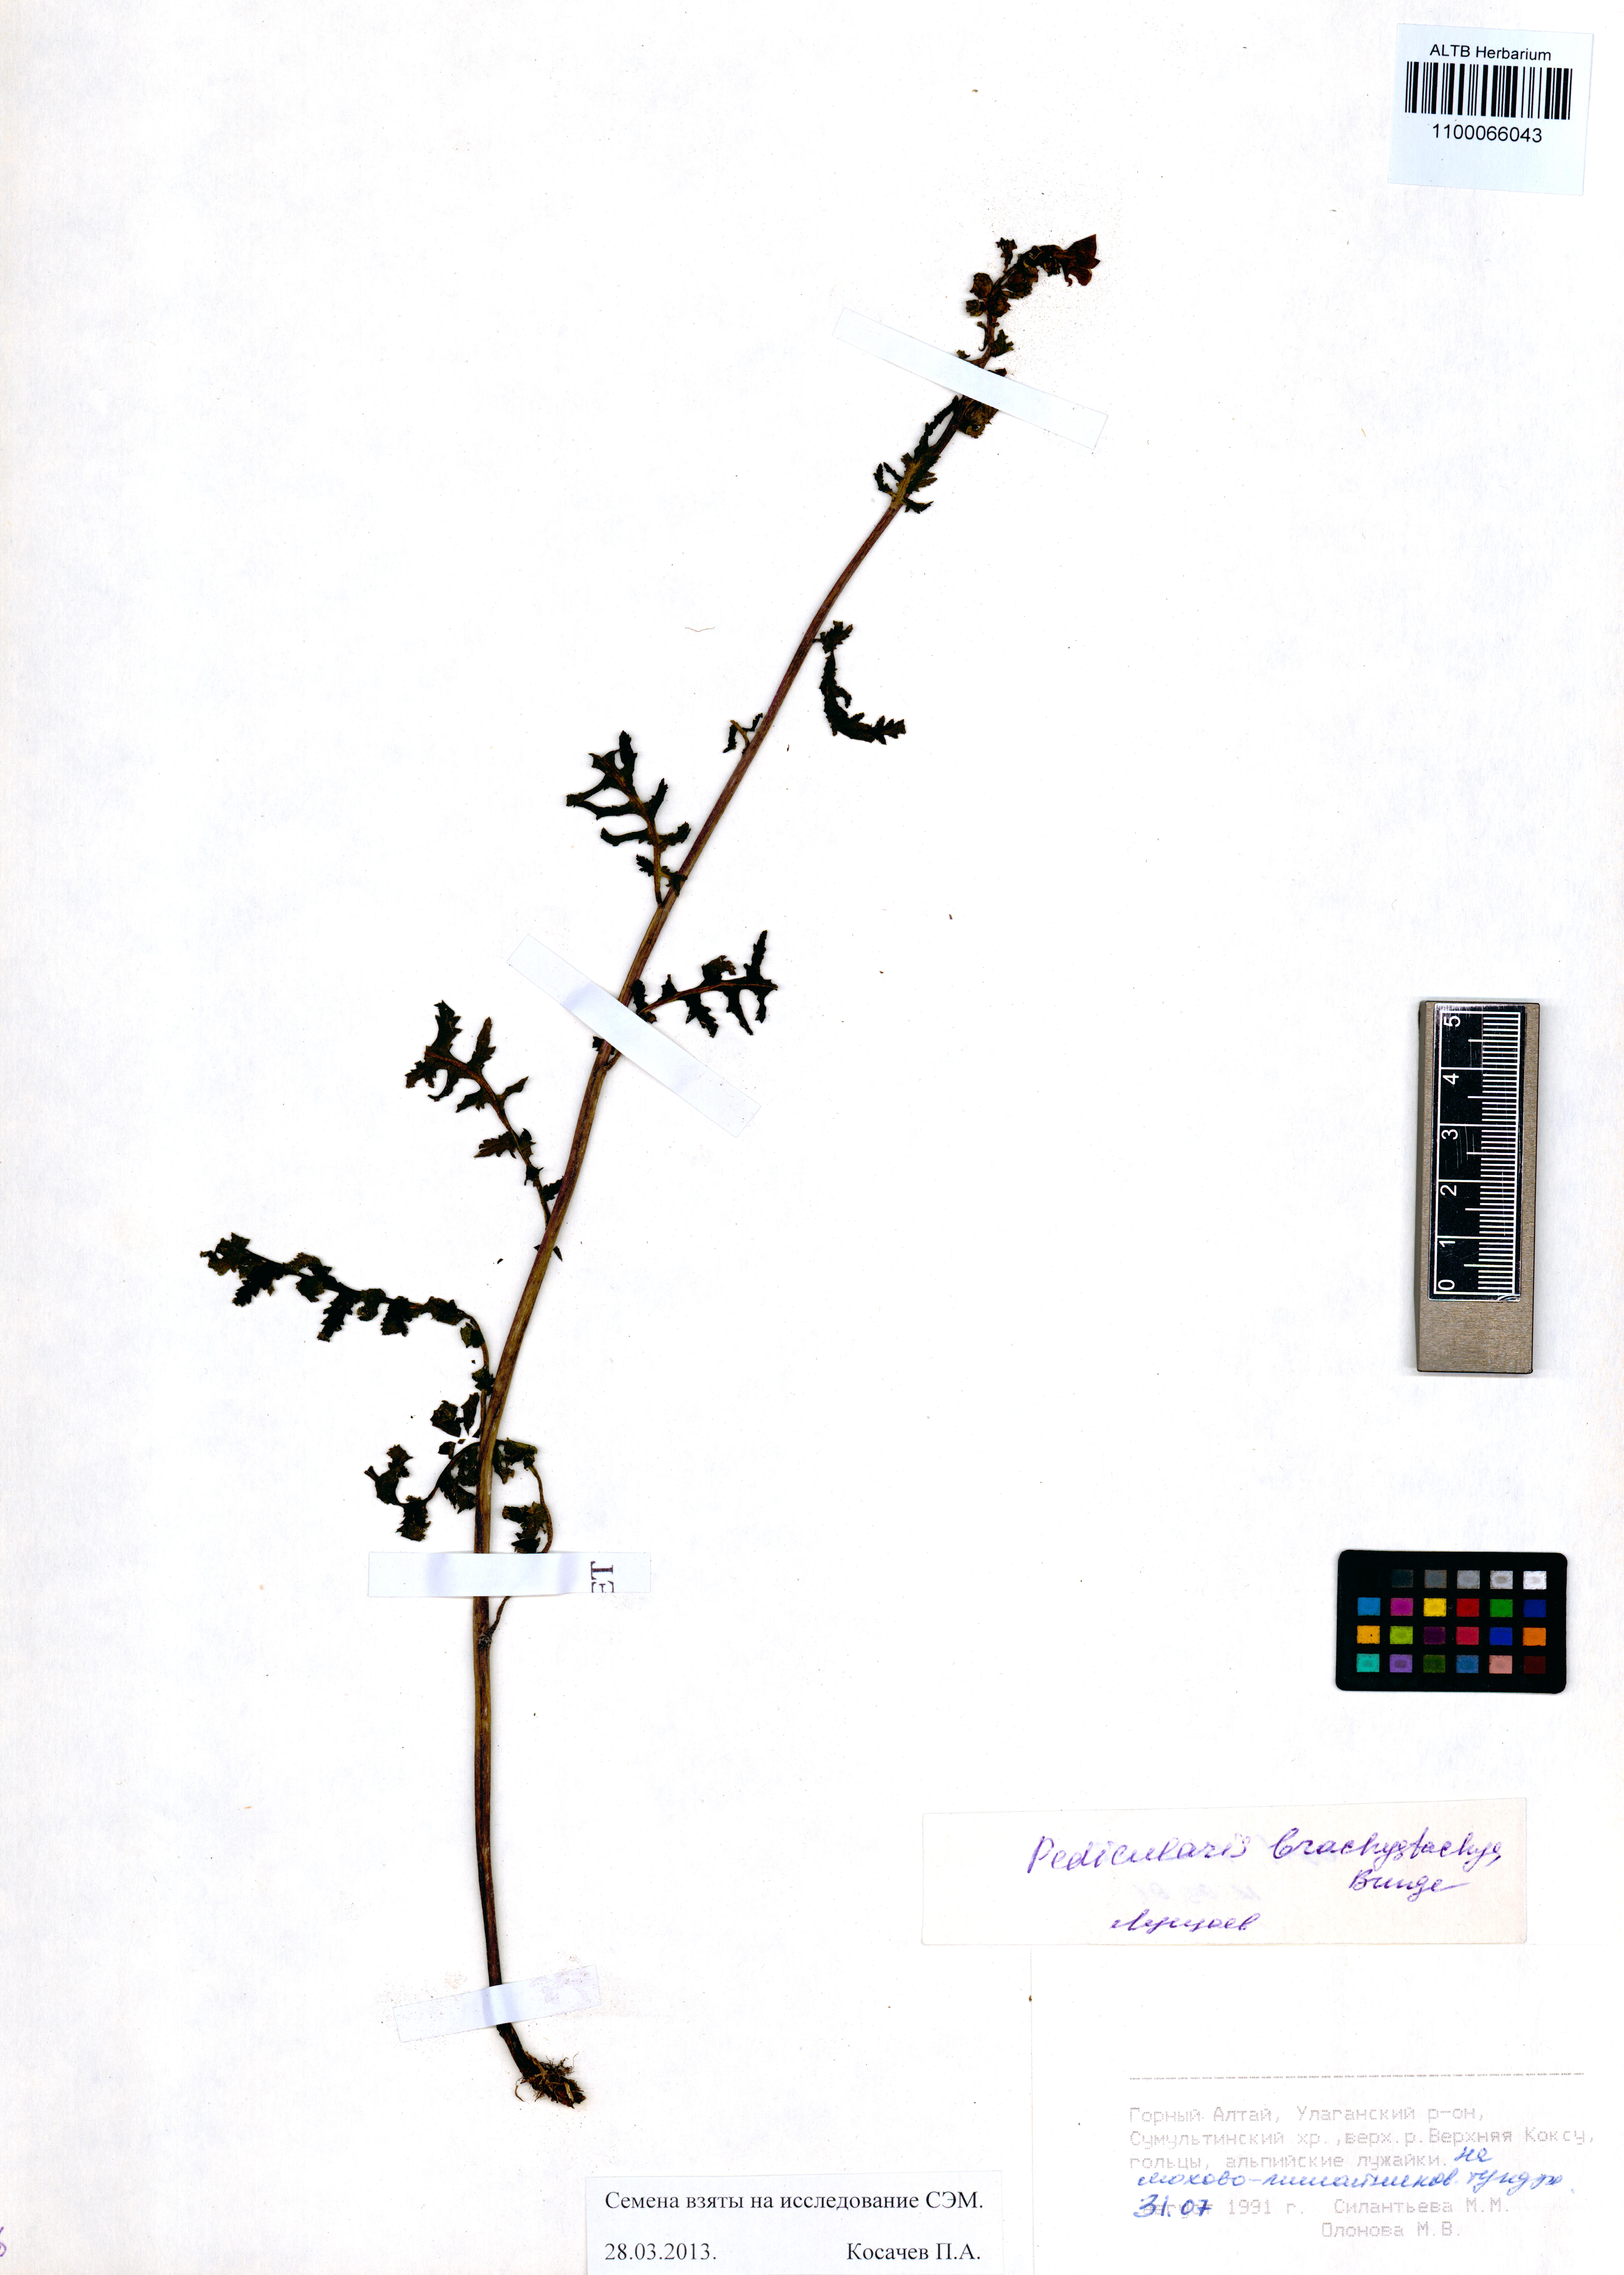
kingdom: Plantae
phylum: Tracheophyta
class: Magnoliopsida
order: Lamiales
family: Orobanchaceae
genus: Pedicularis
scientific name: Pedicularis brachystachys
